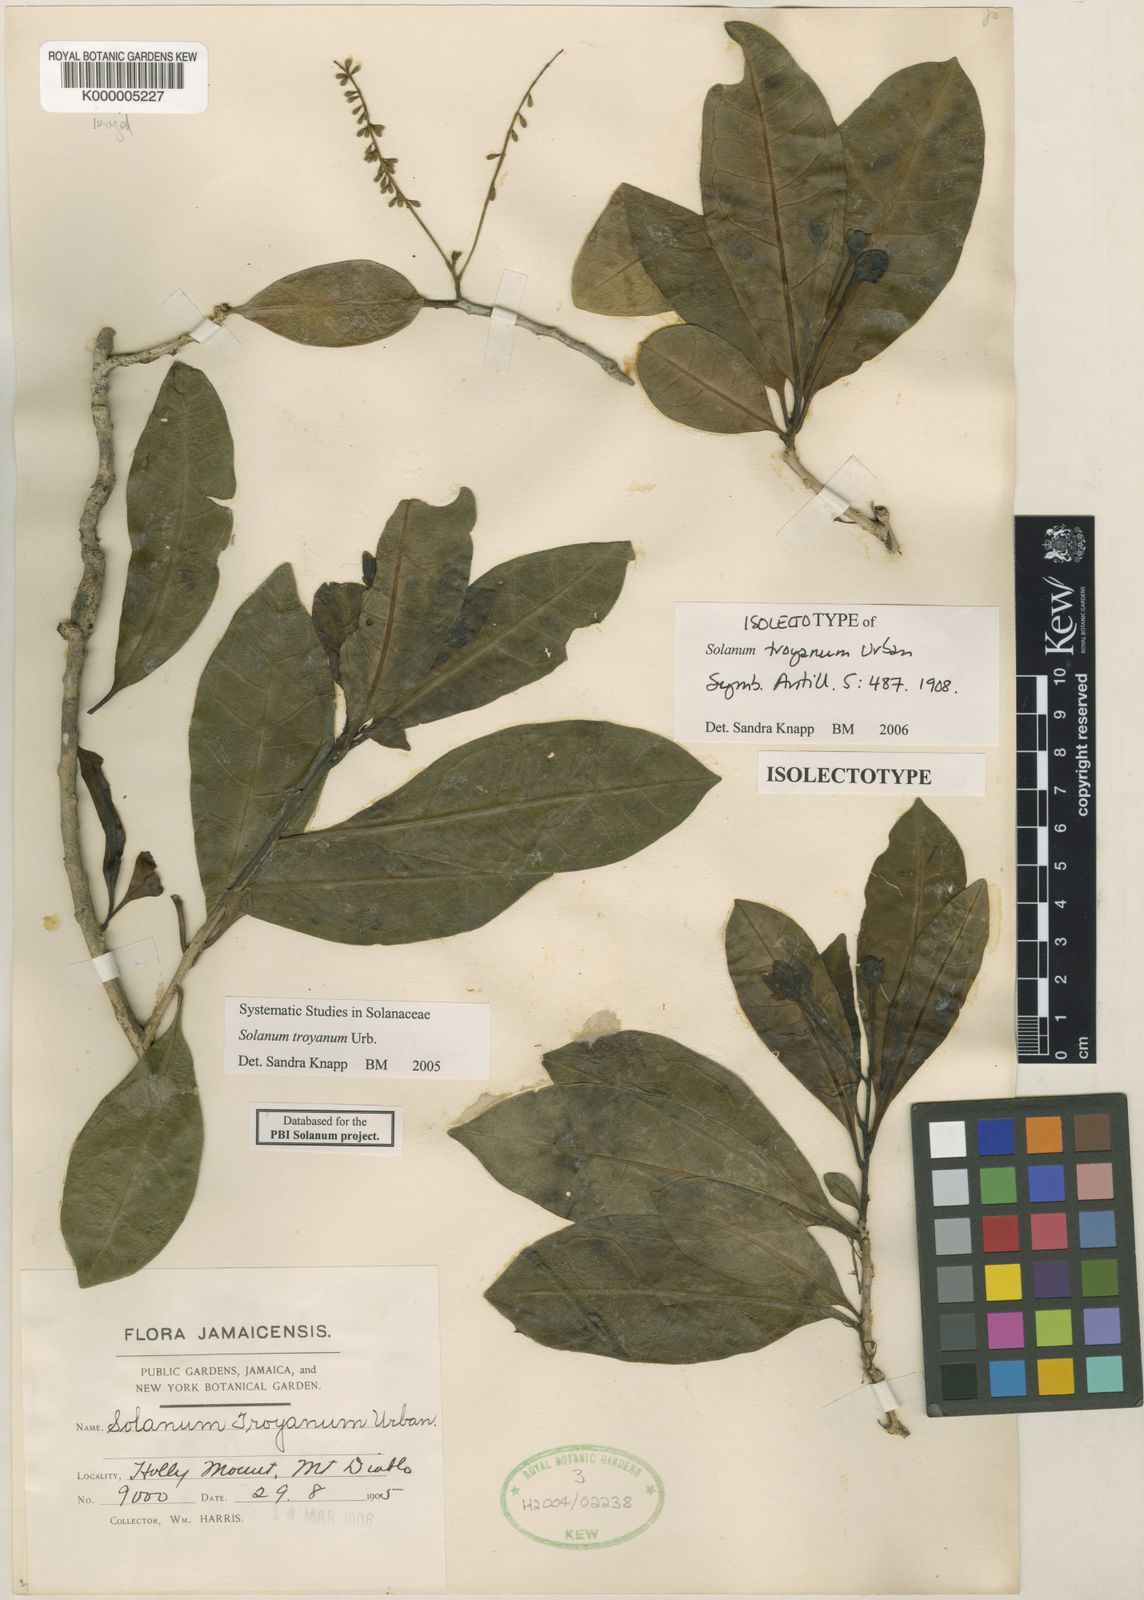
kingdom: Plantae
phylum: Tracheophyta
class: Magnoliopsida
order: Solanales
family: Solanaceae
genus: Solanum
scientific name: Solanum troyanum
